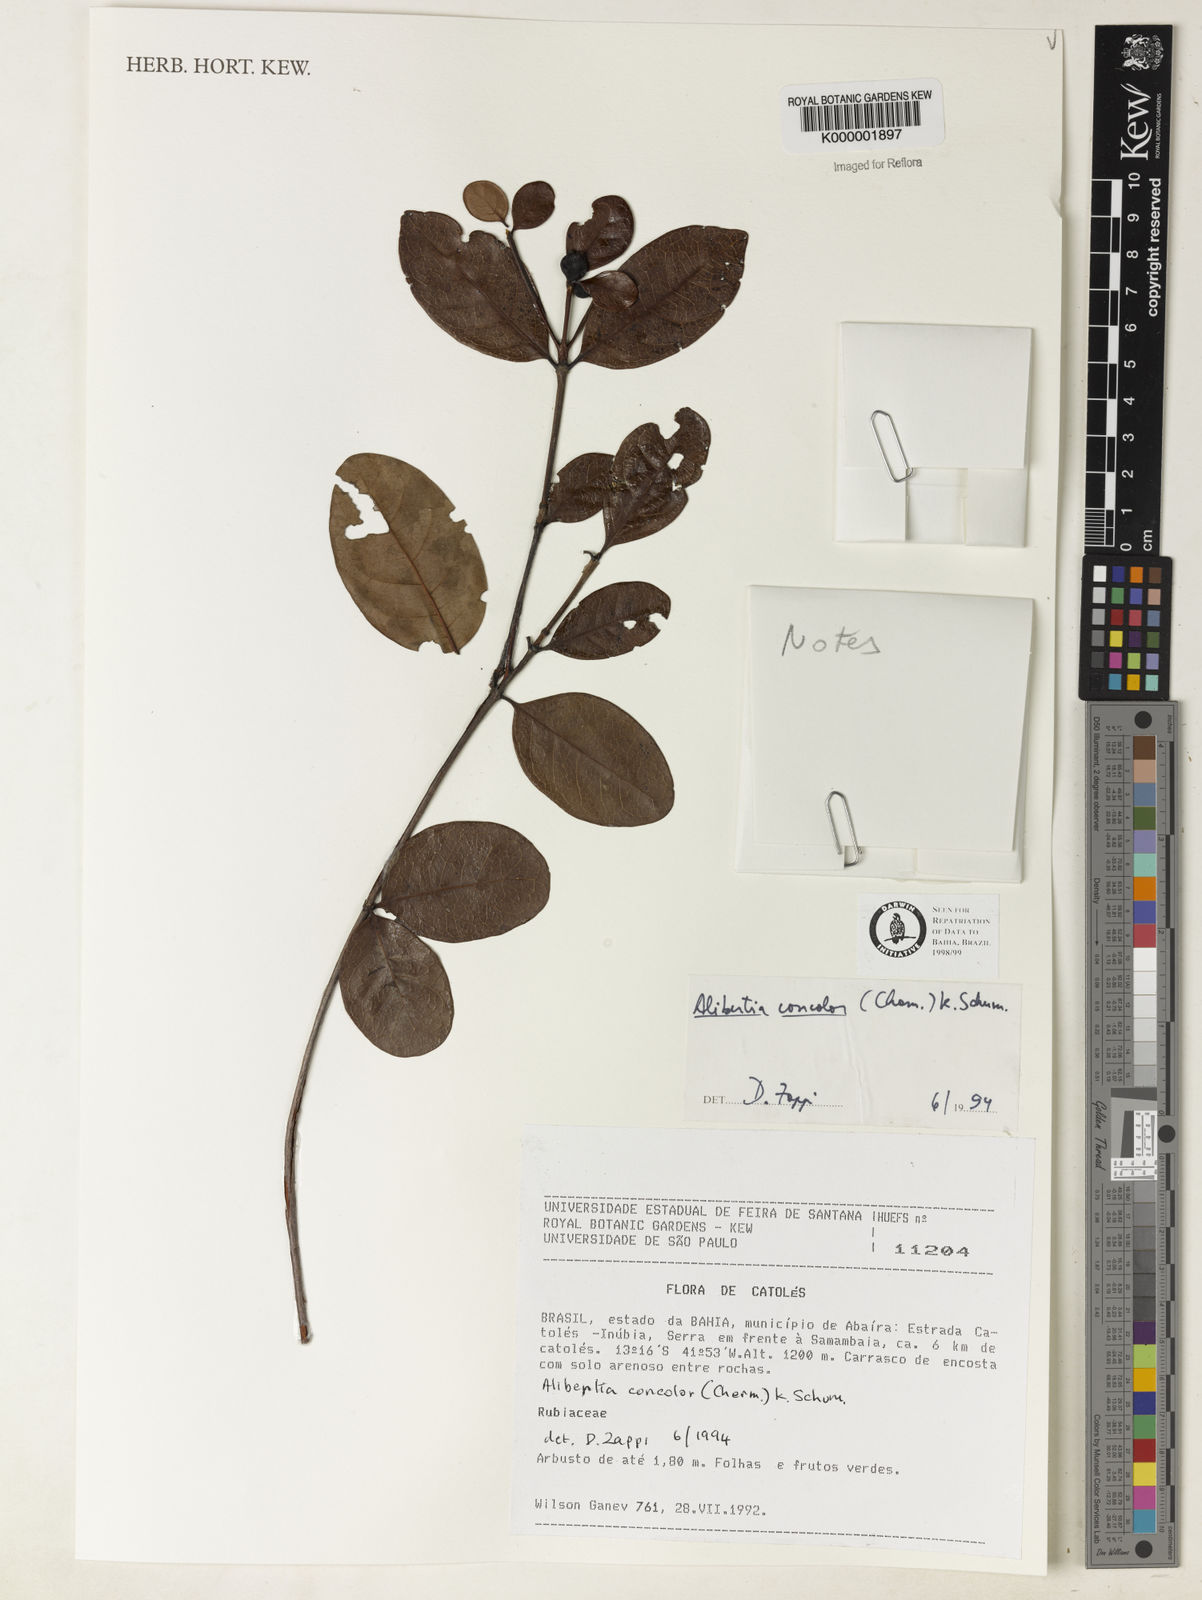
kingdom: Plantae
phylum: Tracheophyta
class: Magnoliopsida
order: Gentianales
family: Rubiaceae
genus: Cordiera
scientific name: Cordiera concolor
